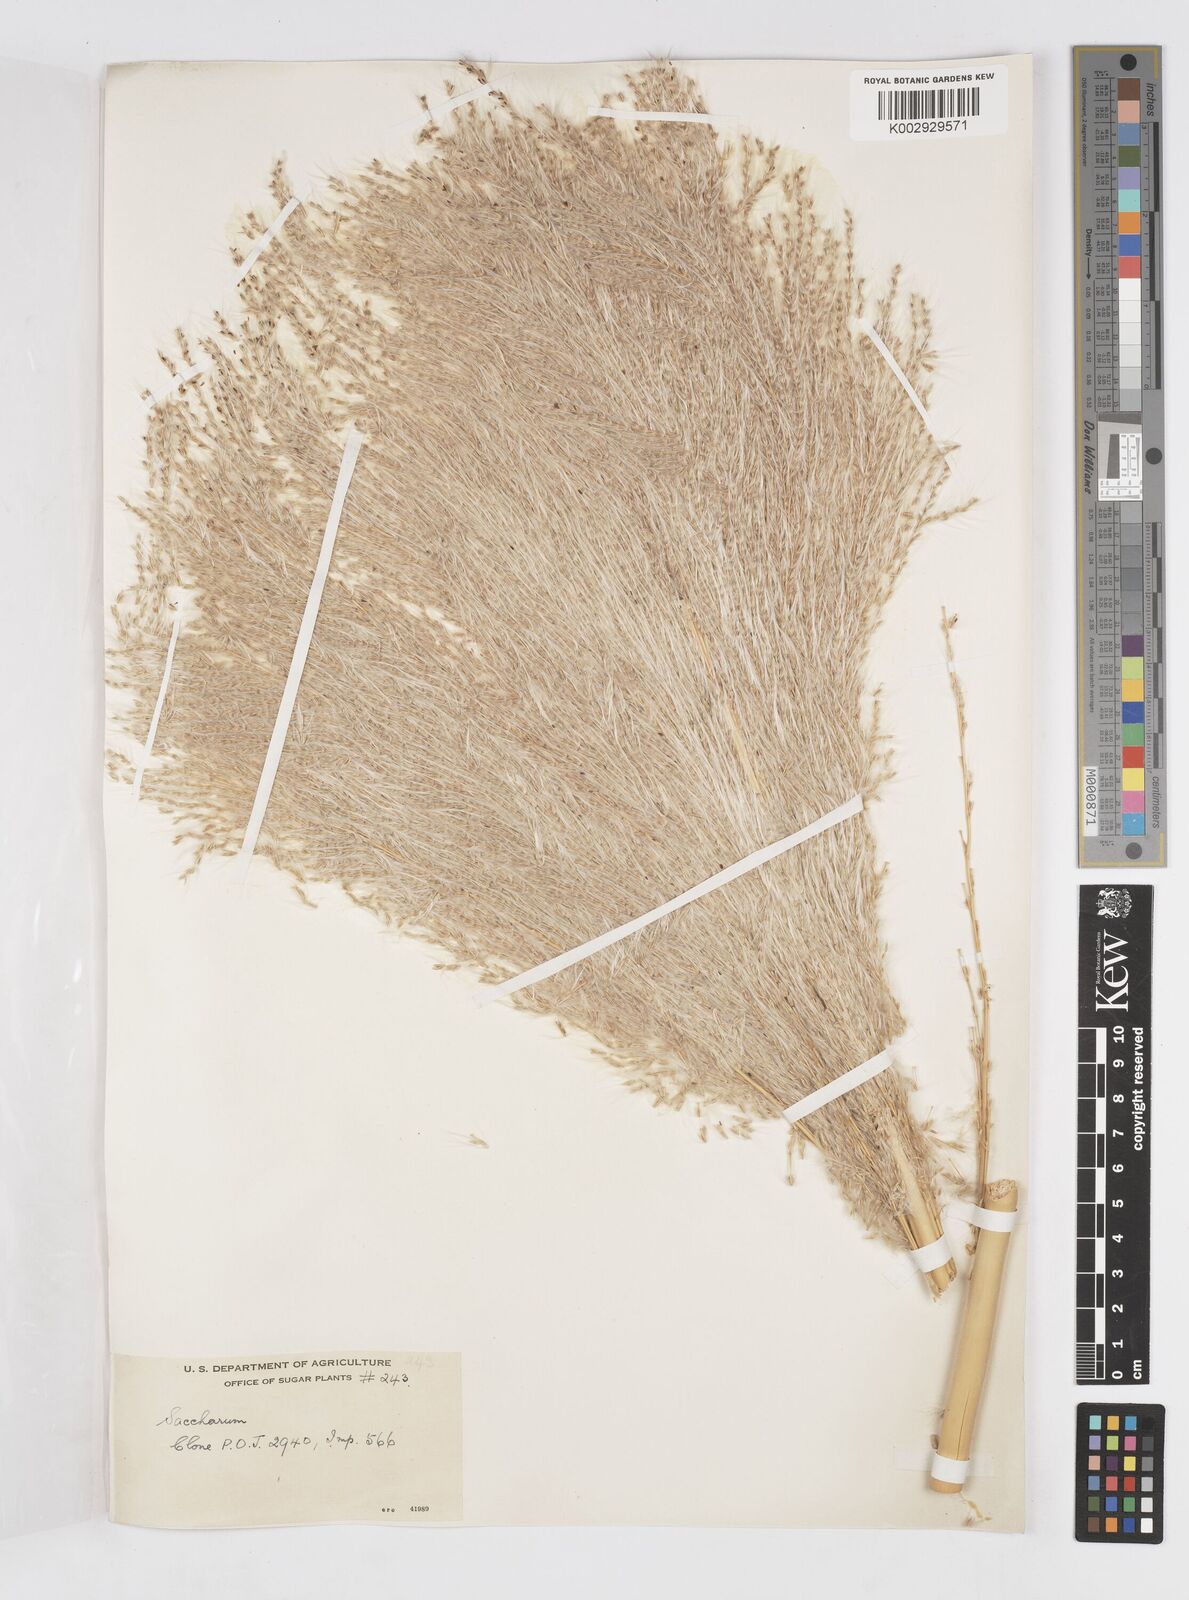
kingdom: Plantae
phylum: Tracheophyta
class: Liliopsida
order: Poales
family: Poaceae
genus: Saccharum
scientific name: Saccharum officinarum
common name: Sugarcane
